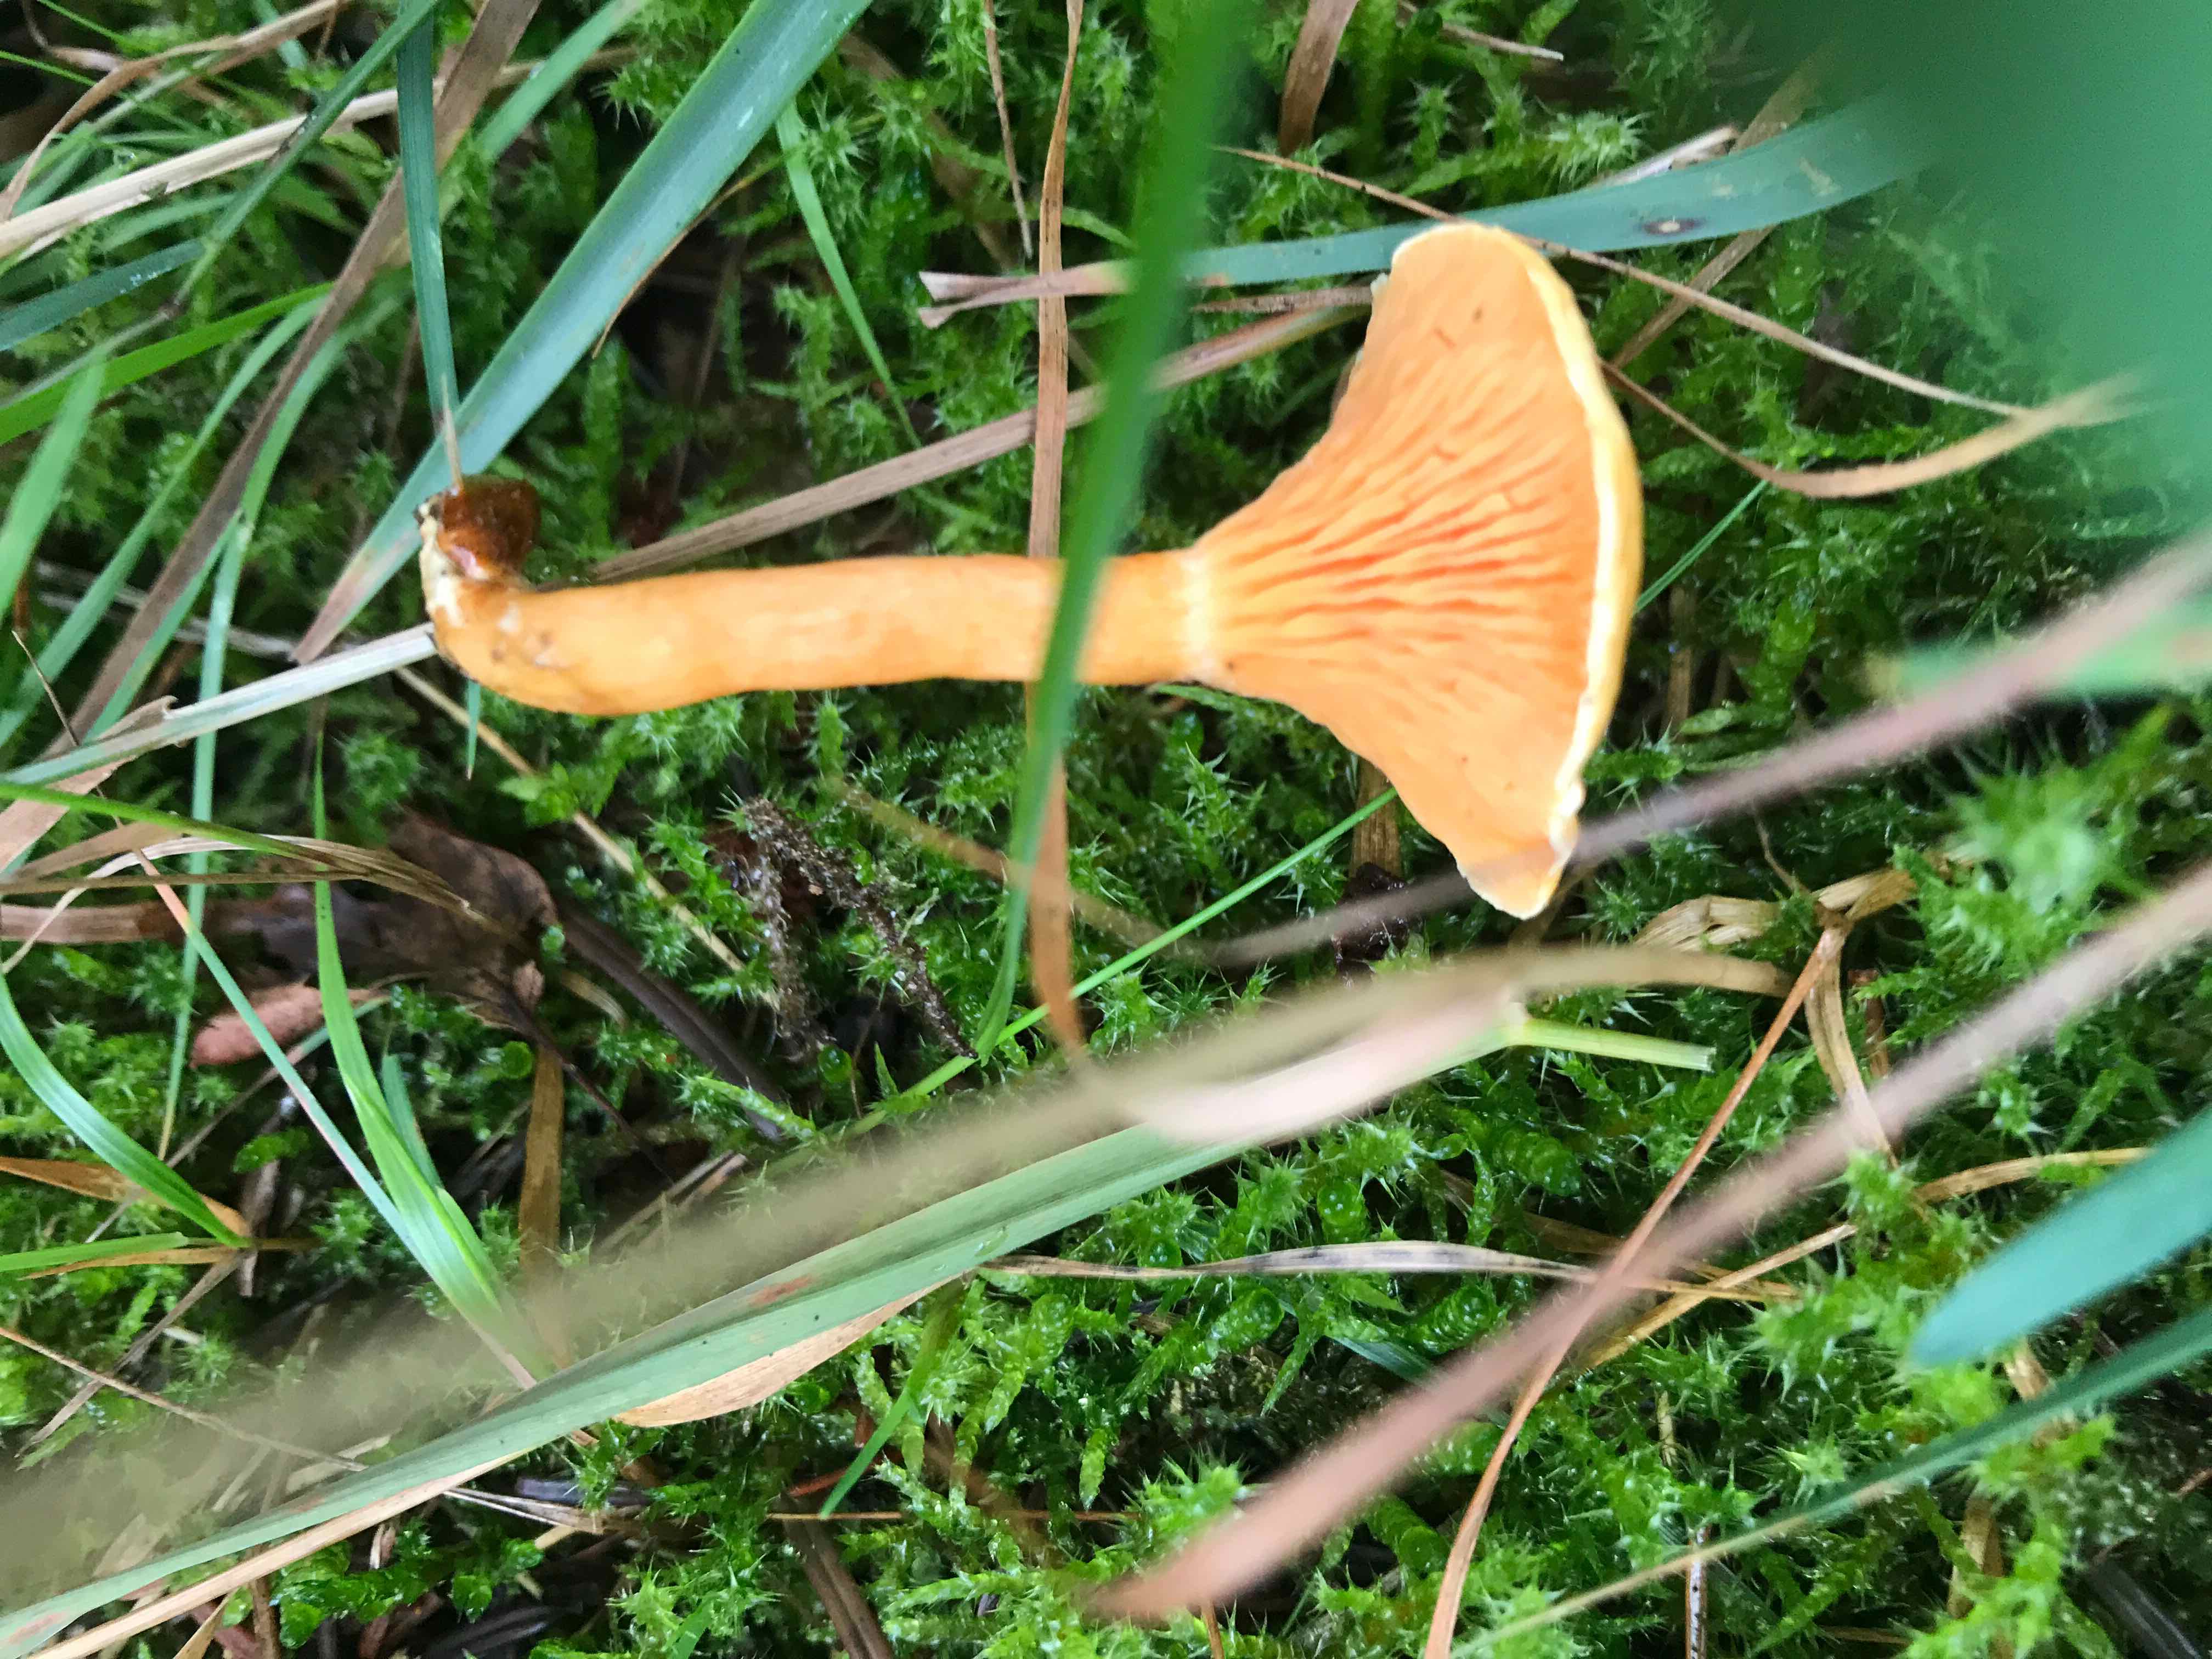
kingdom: Fungi
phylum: Basidiomycota
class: Agaricomycetes
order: Boletales
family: Hygrophoropsidaceae
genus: Hygrophoropsis
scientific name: Hygrophoropsis aurantiaca
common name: almindelig orangekantarel
